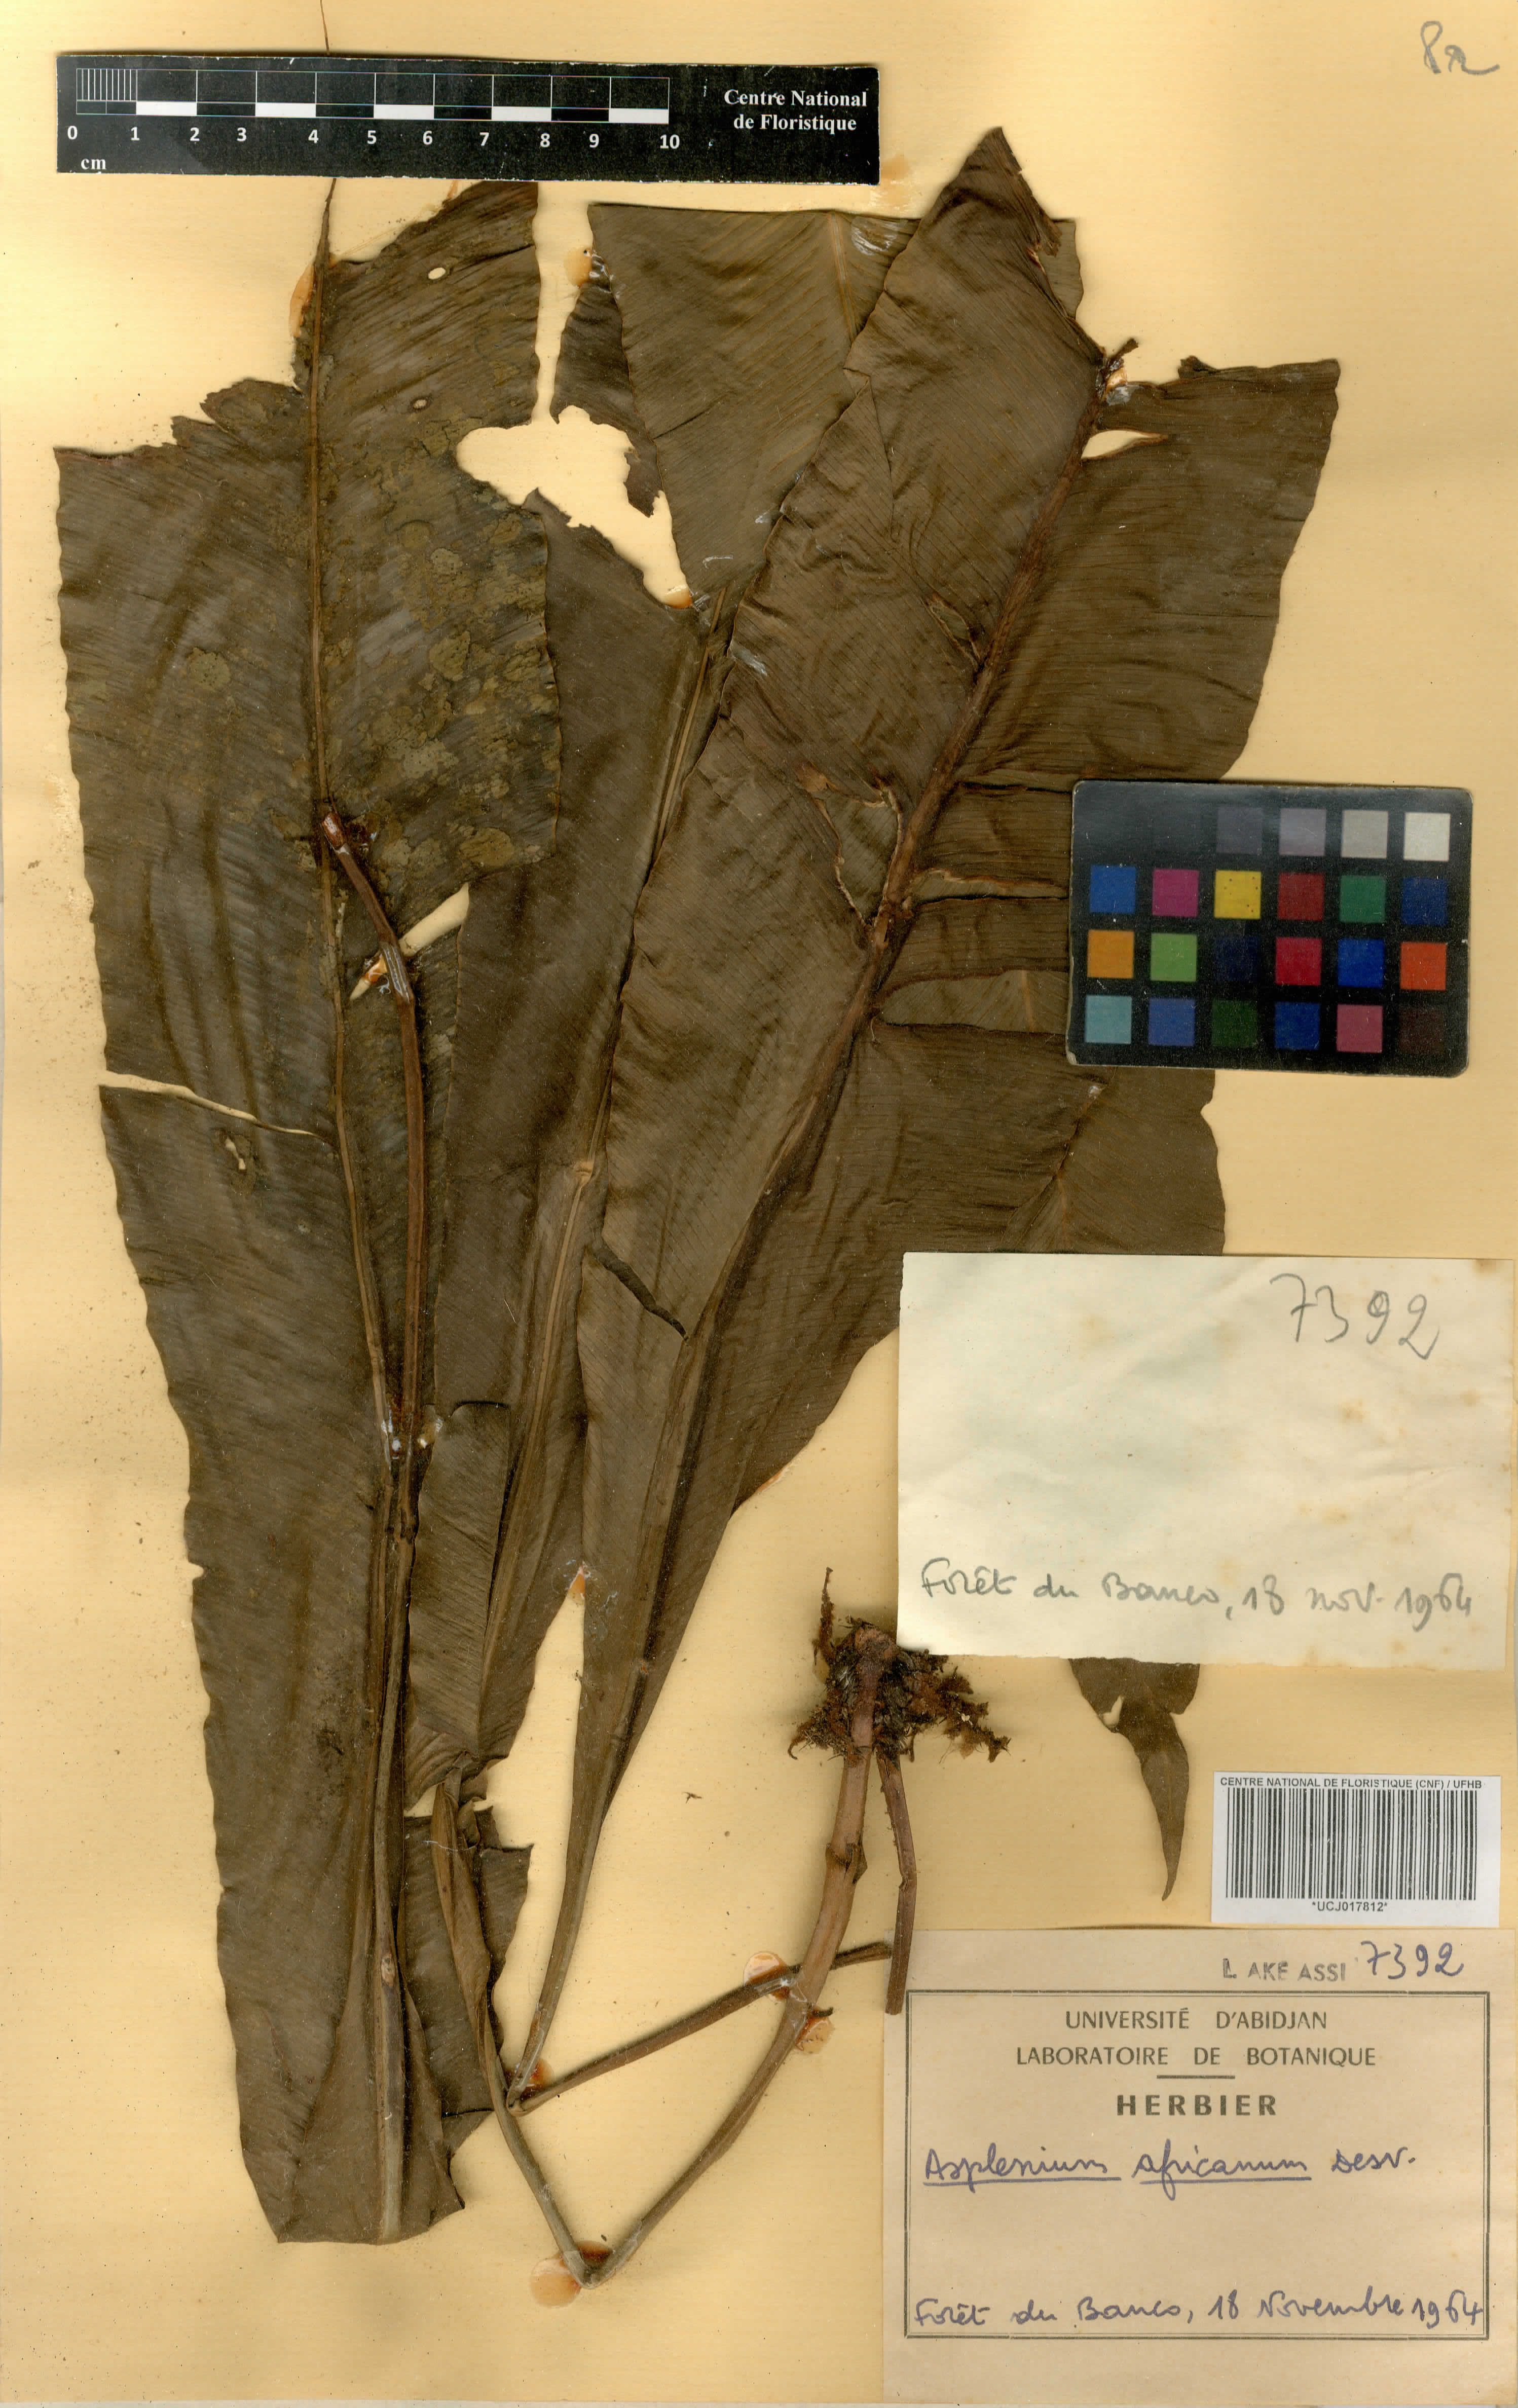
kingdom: Plantae
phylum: Tracheophyta
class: Polypodiopsida
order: Polypodiales
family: Aspleniaceae
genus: Asplenium
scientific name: Asplenium africanum
